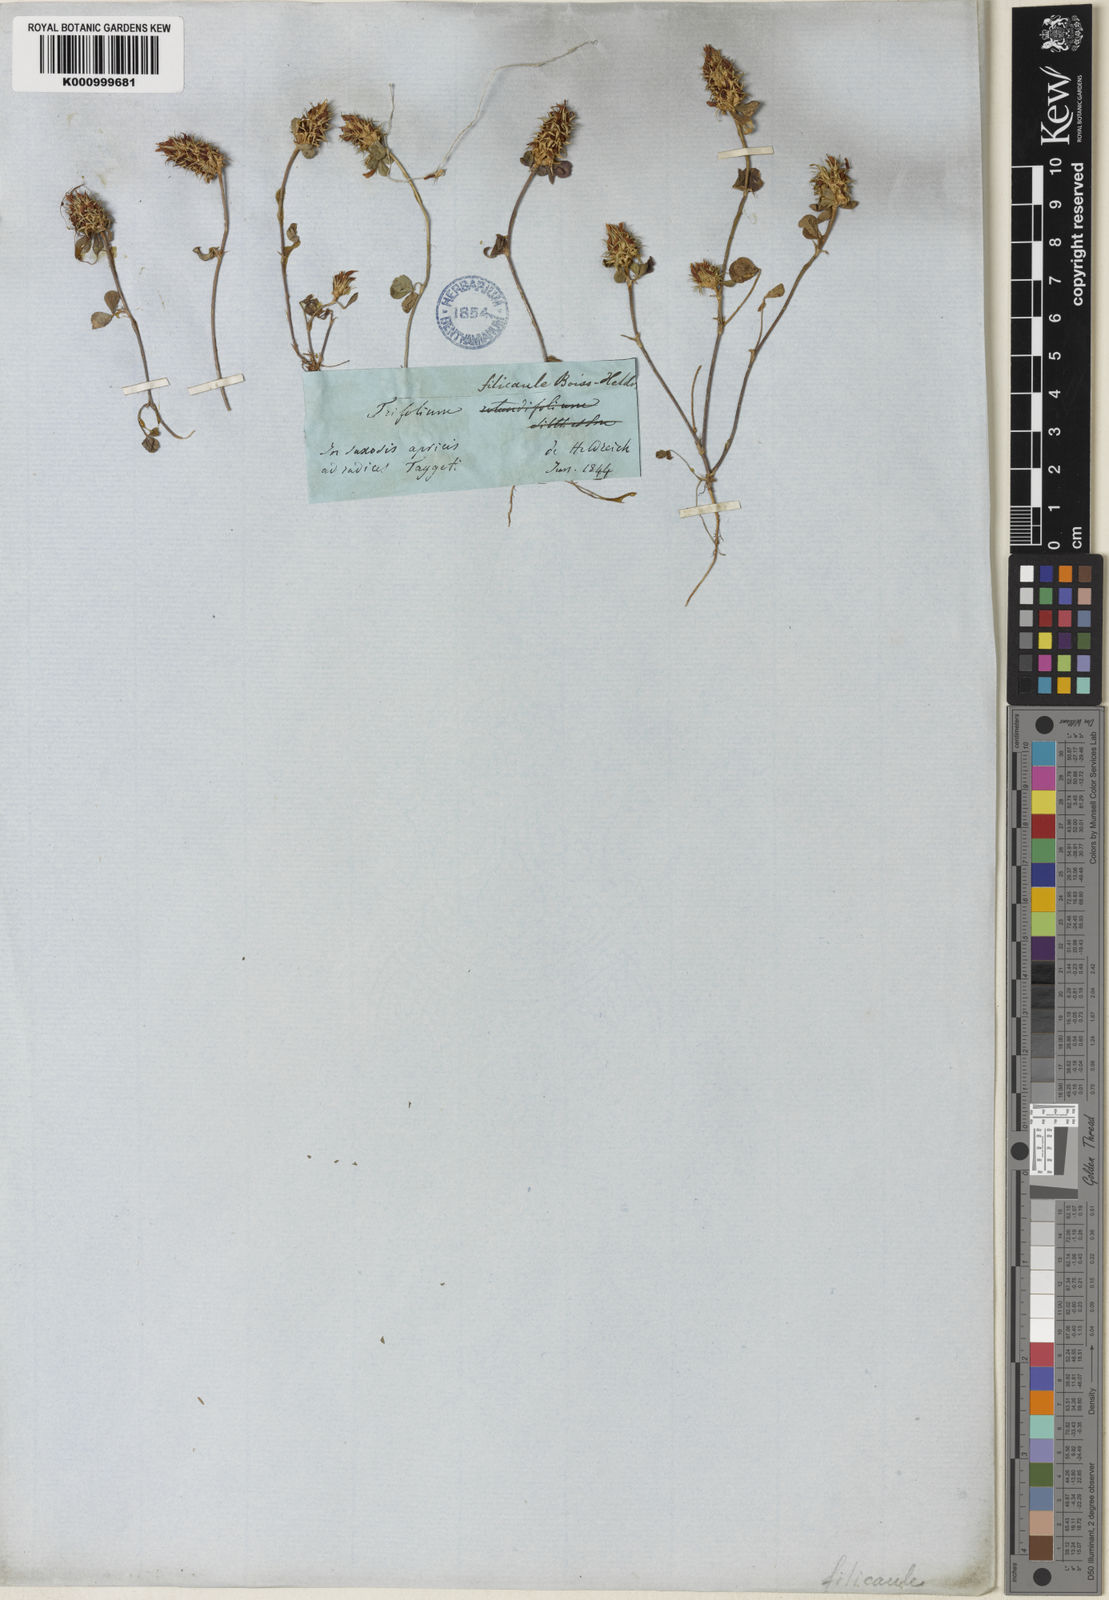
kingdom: Plantae
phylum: Tracheophyta
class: Magnoliopsida
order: Fabales
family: Fabaceae
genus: Trifolium
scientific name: Trifolium dalmaticum
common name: Dalmatian clover
